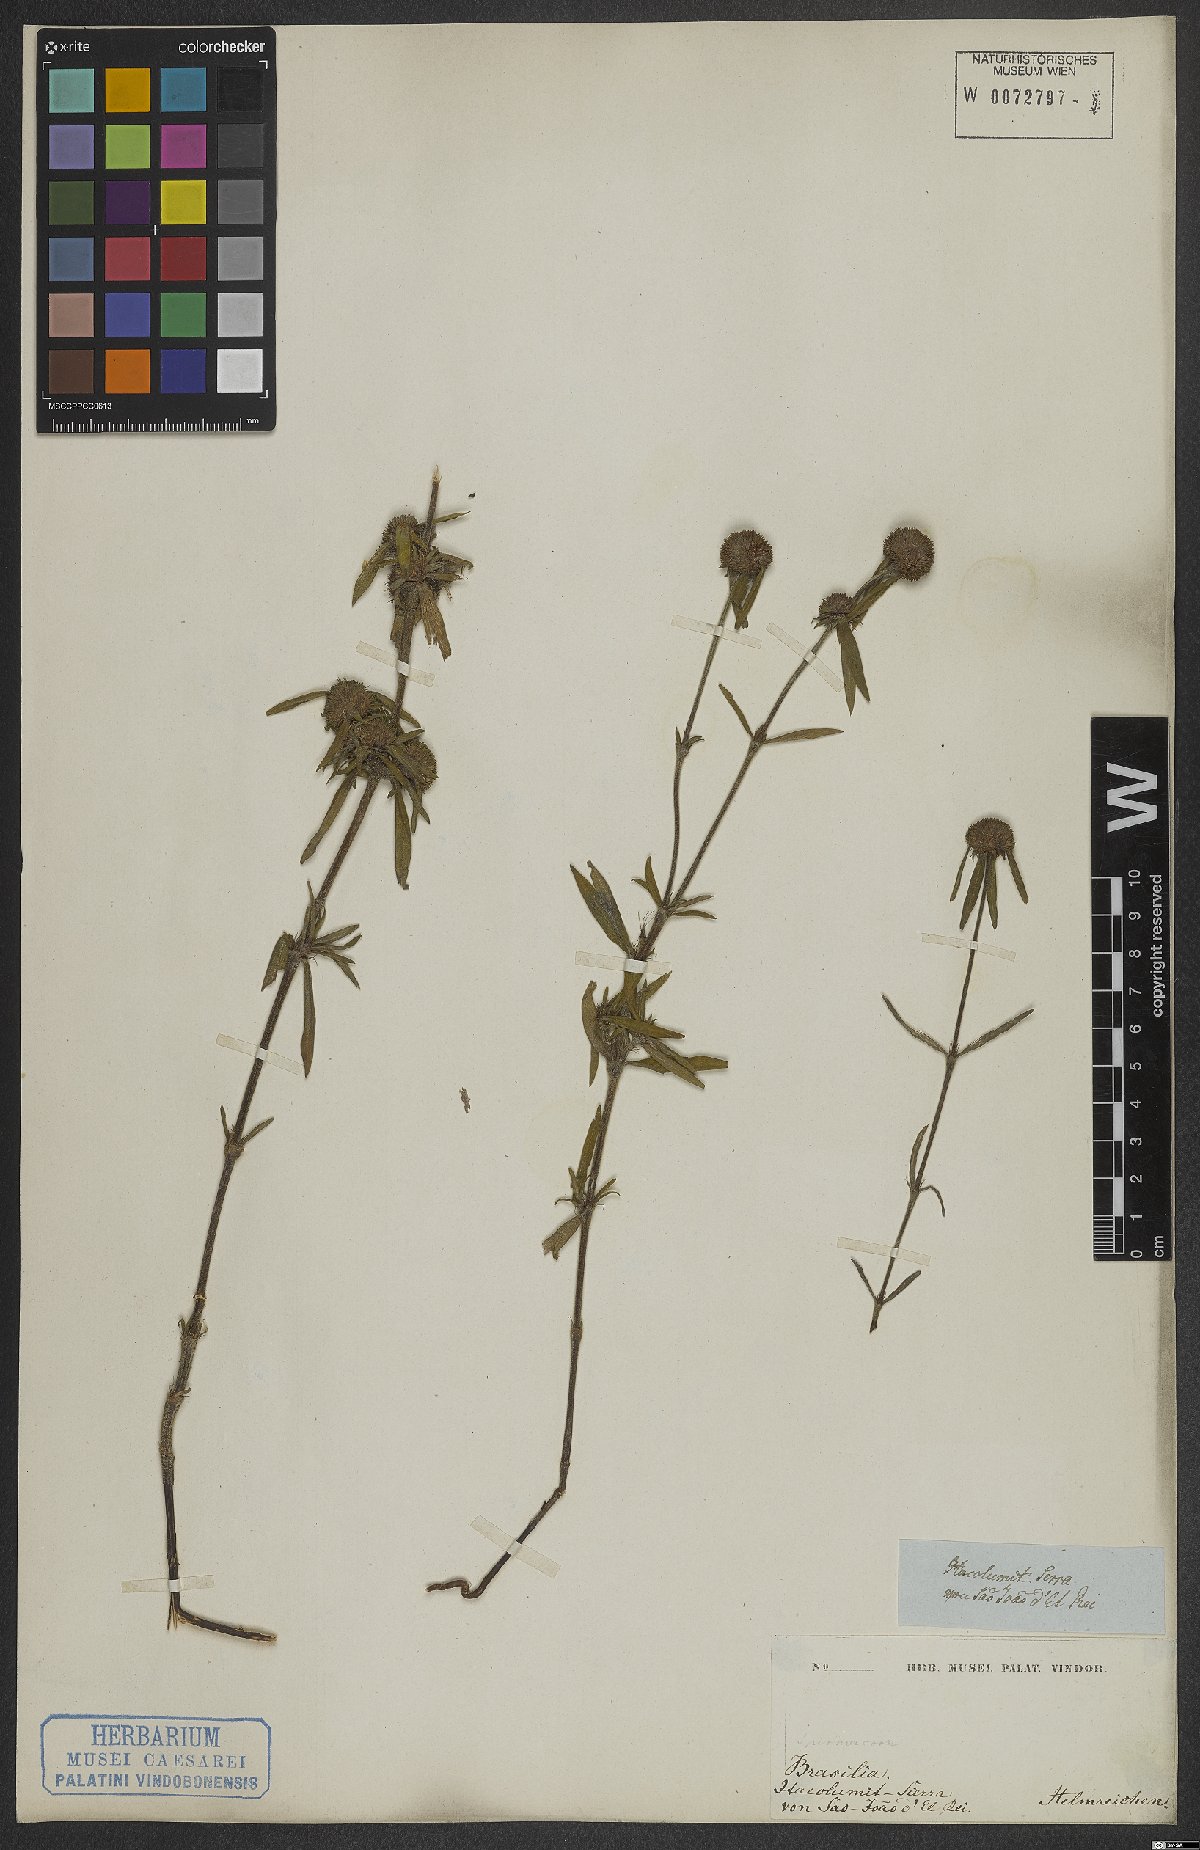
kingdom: Plantae
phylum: Tracheophyta
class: Magnoliopsida
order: Gentianales
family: Rubiaceae
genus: Spermacoce
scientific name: Spermacoce
